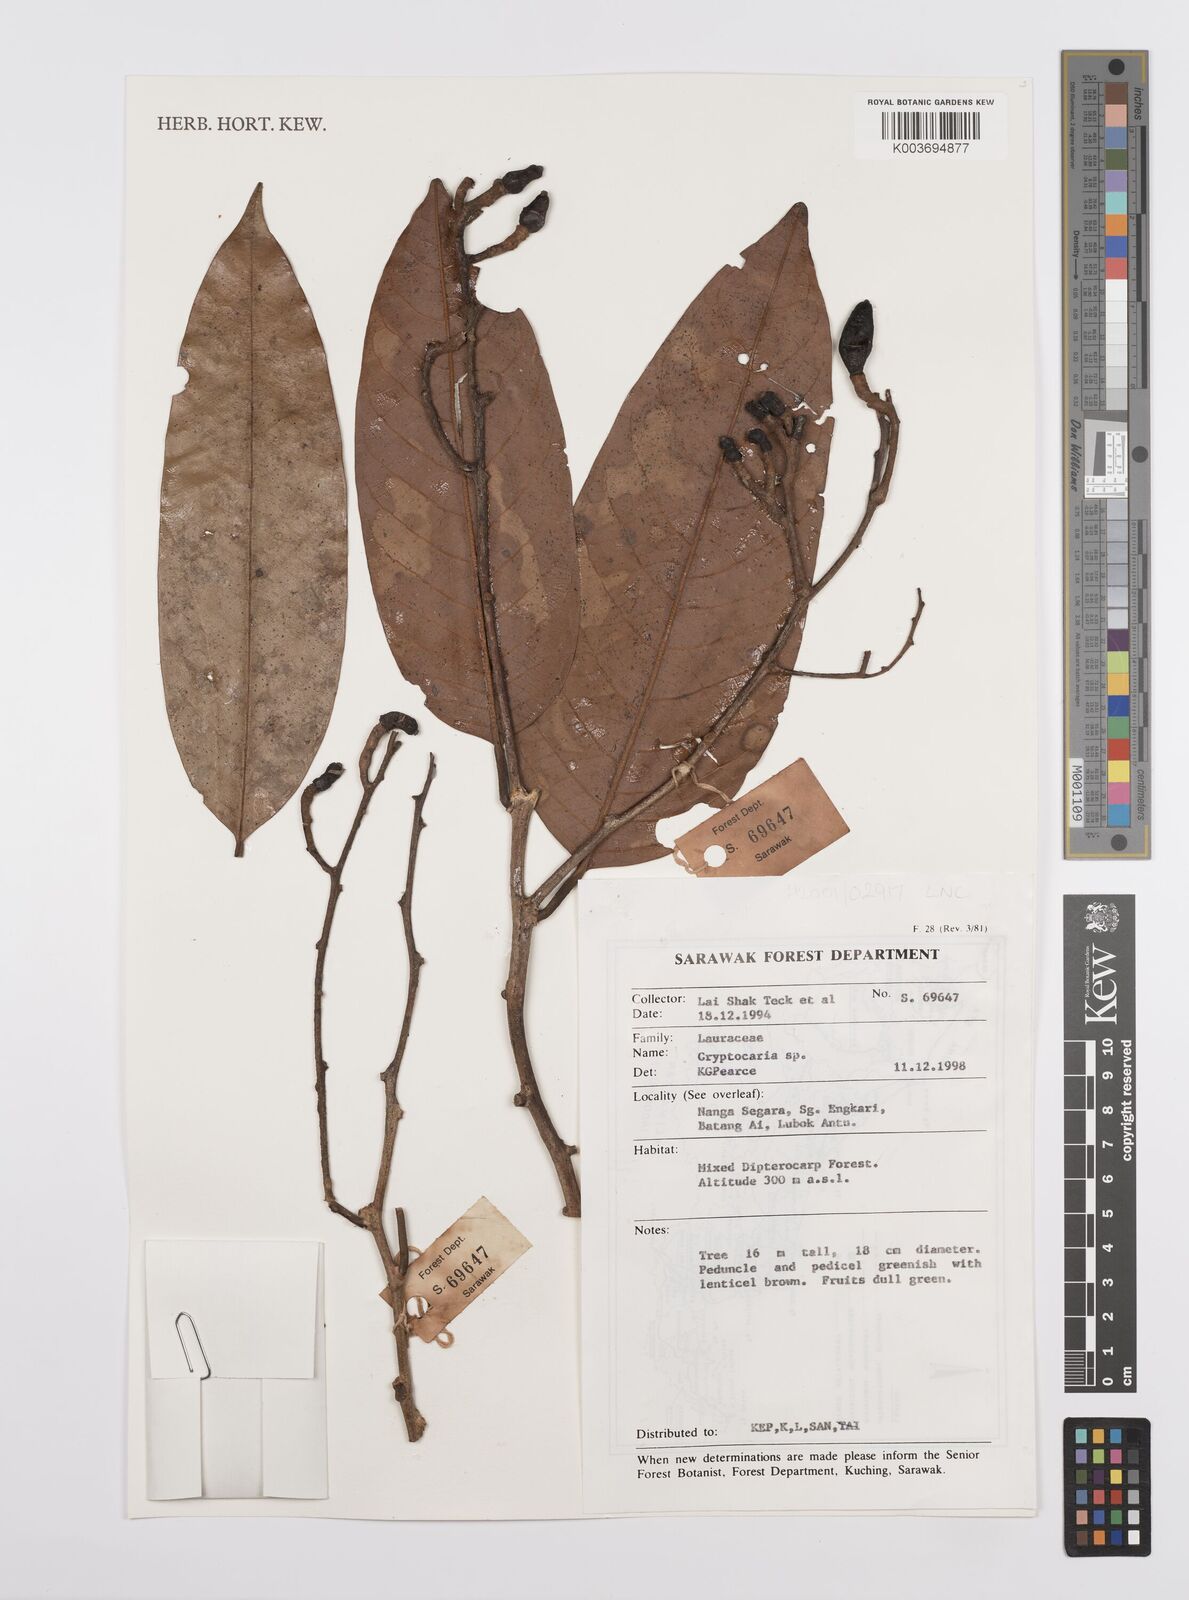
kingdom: Plantae
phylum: Tracheophyta
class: Magnoliopsida
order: Laurales
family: Lauraceae
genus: Cryptocarya
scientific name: Cryptocarya
